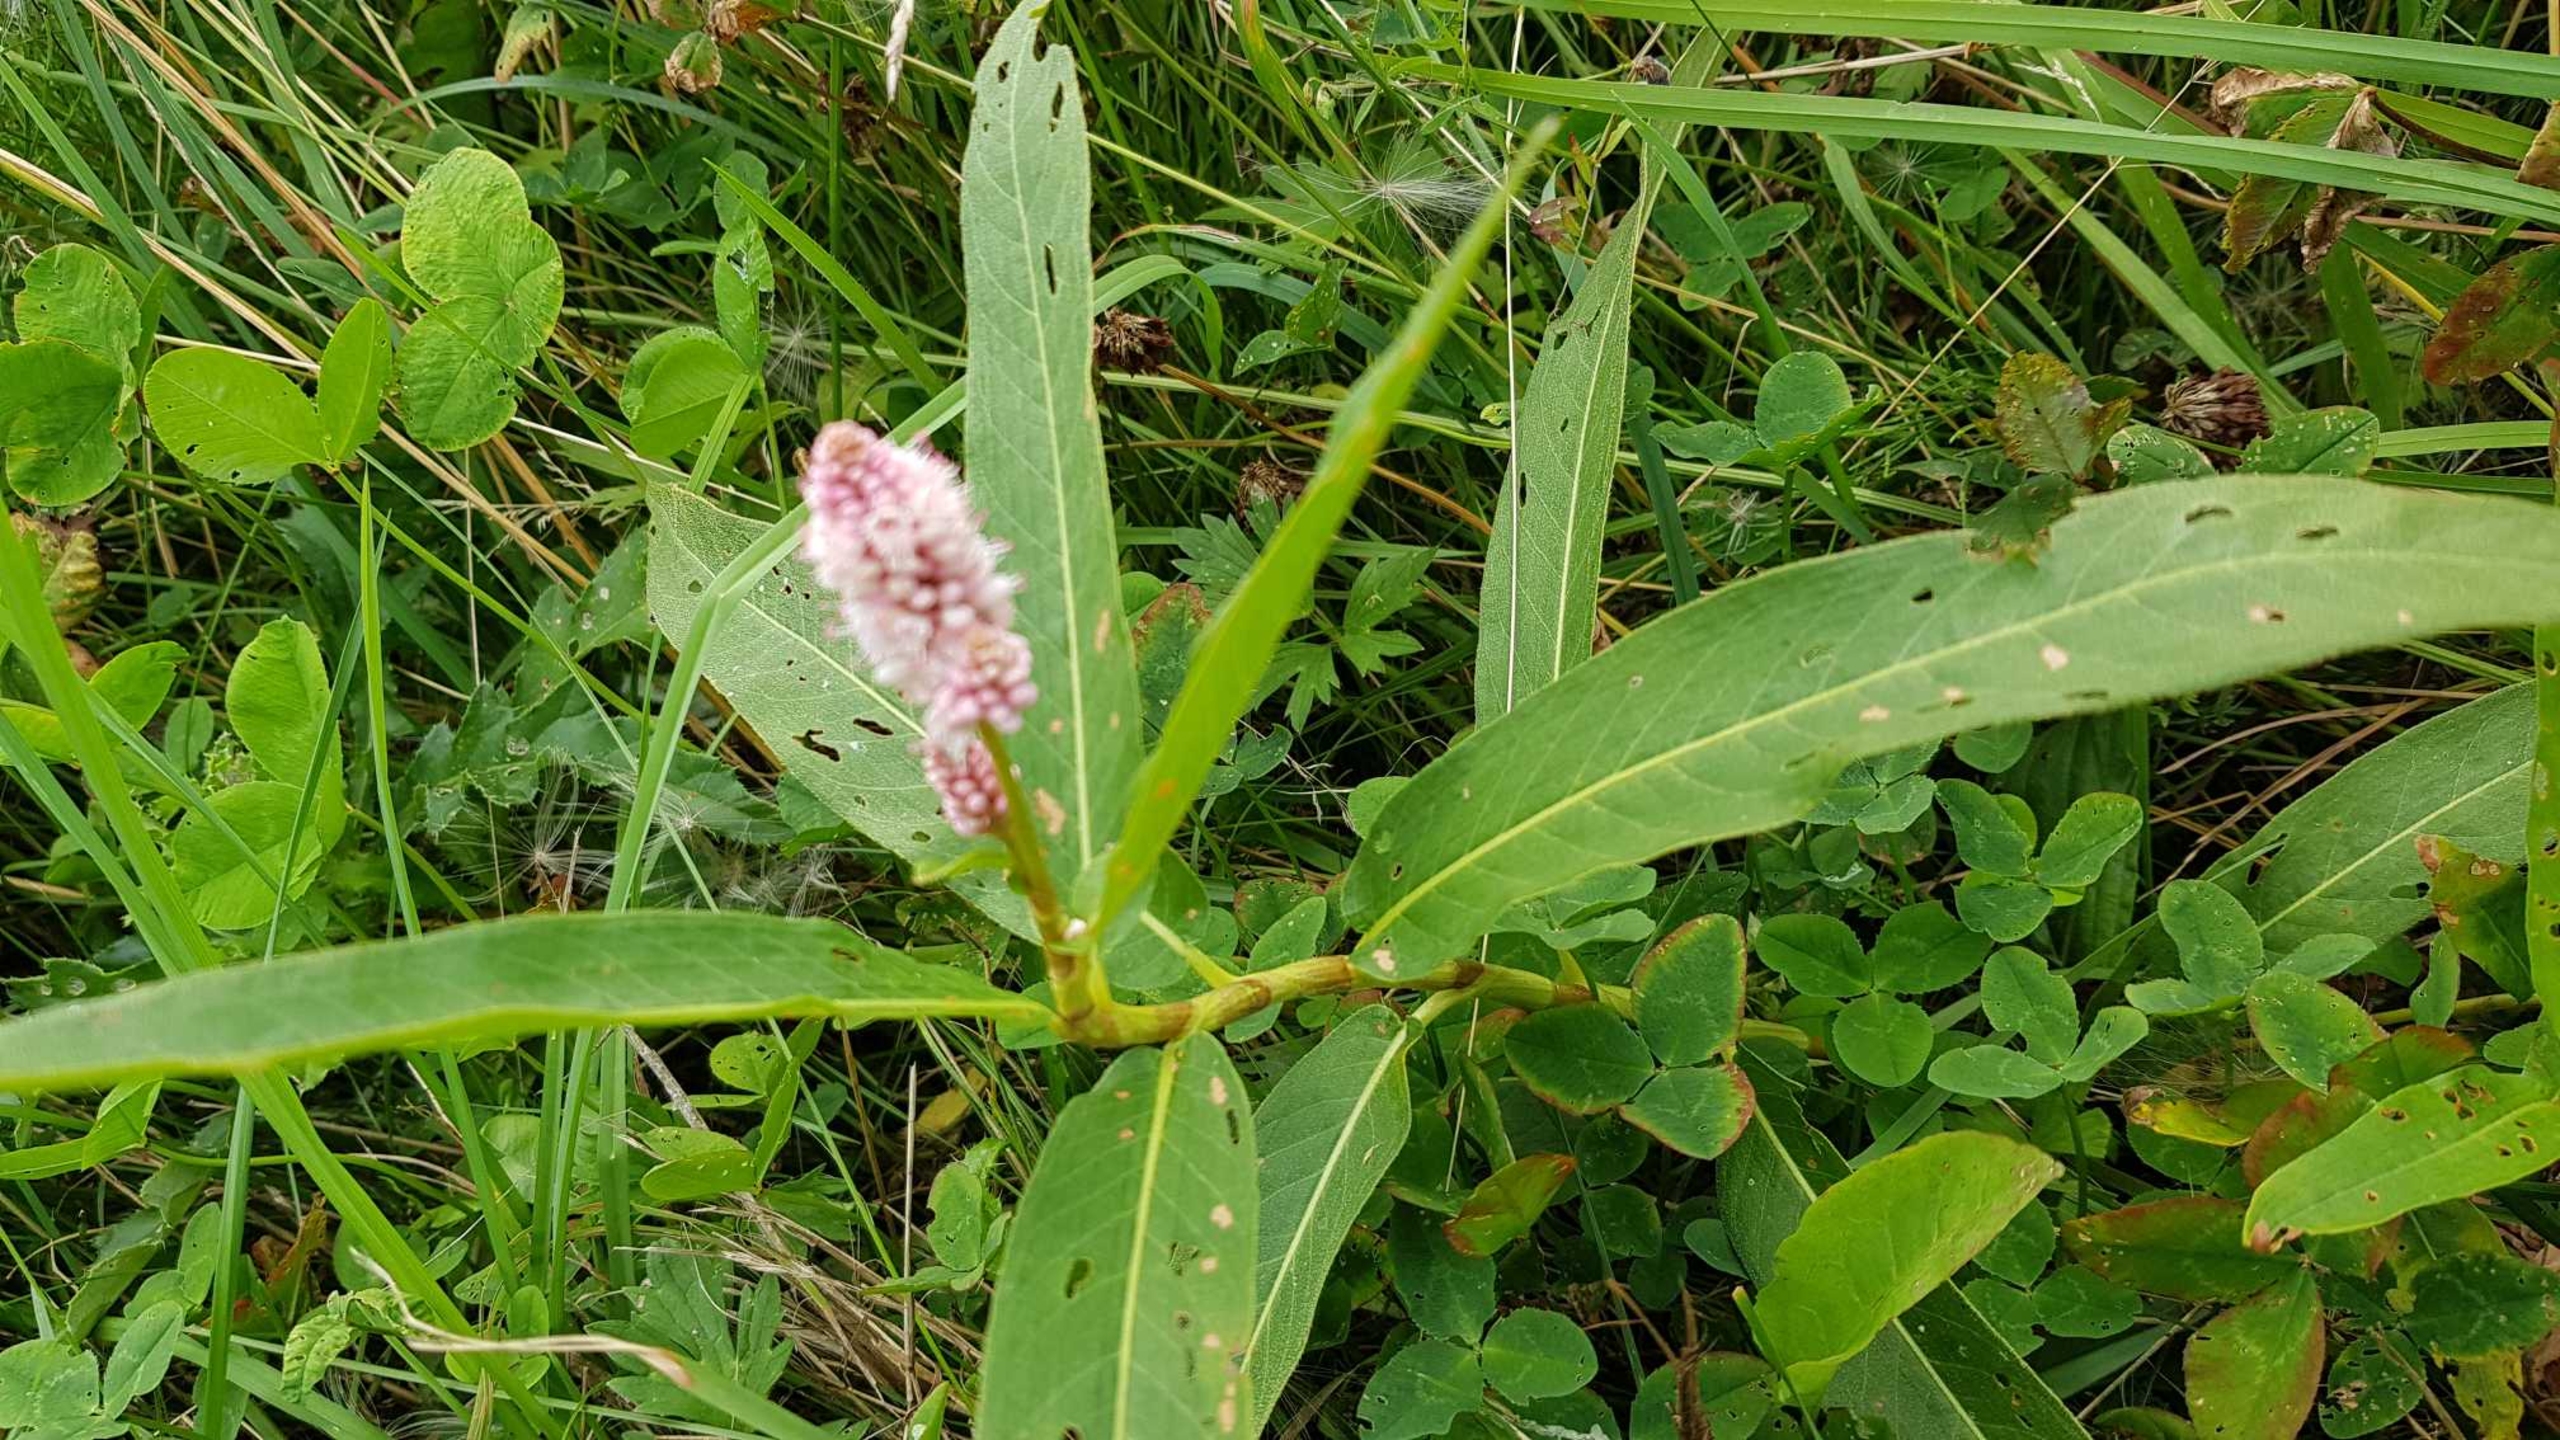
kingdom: Plantae
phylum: Tracheophyta
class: Magnoliopsida
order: Caryophyllales
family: Polygonaceae
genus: Persicaria
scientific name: Persicaria amphibia
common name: Vand-pileurt
